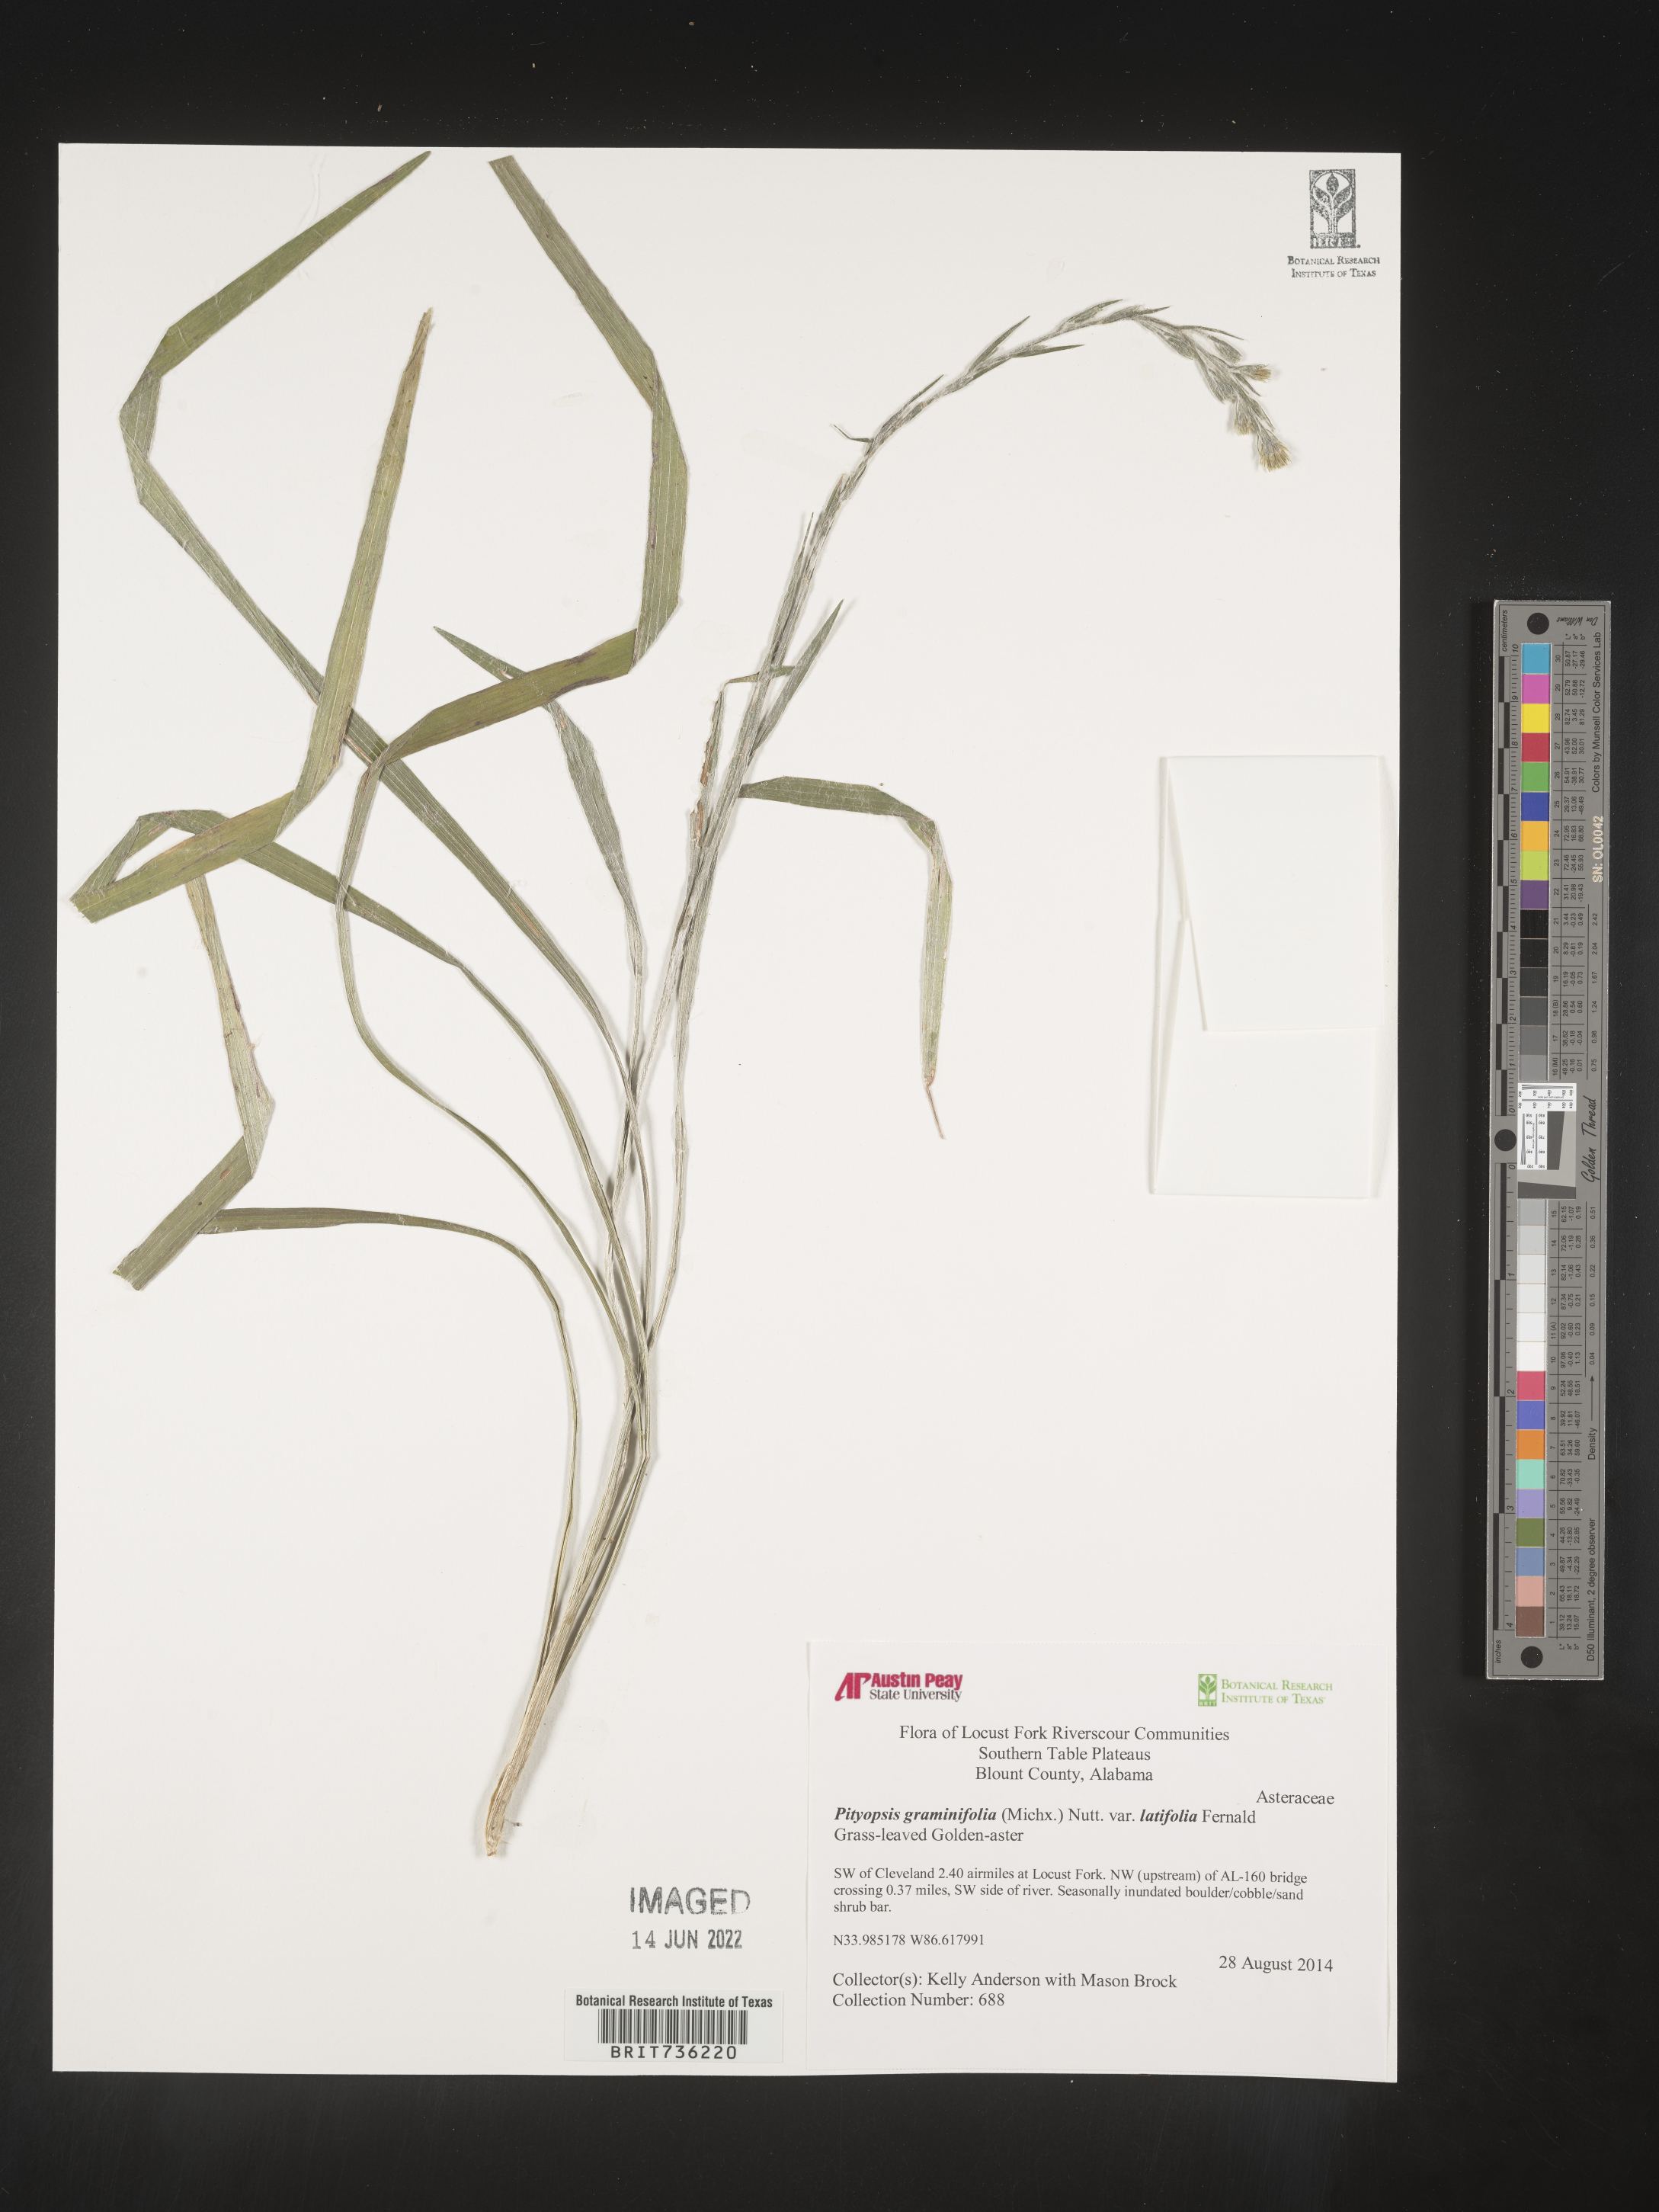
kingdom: Plantae
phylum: Tracheophyta
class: Magnoliopsida
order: Asterales
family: Asteraceae
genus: Pityopsis
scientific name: Pityopsis graminifolia
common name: Grass-leaf golden-aster
